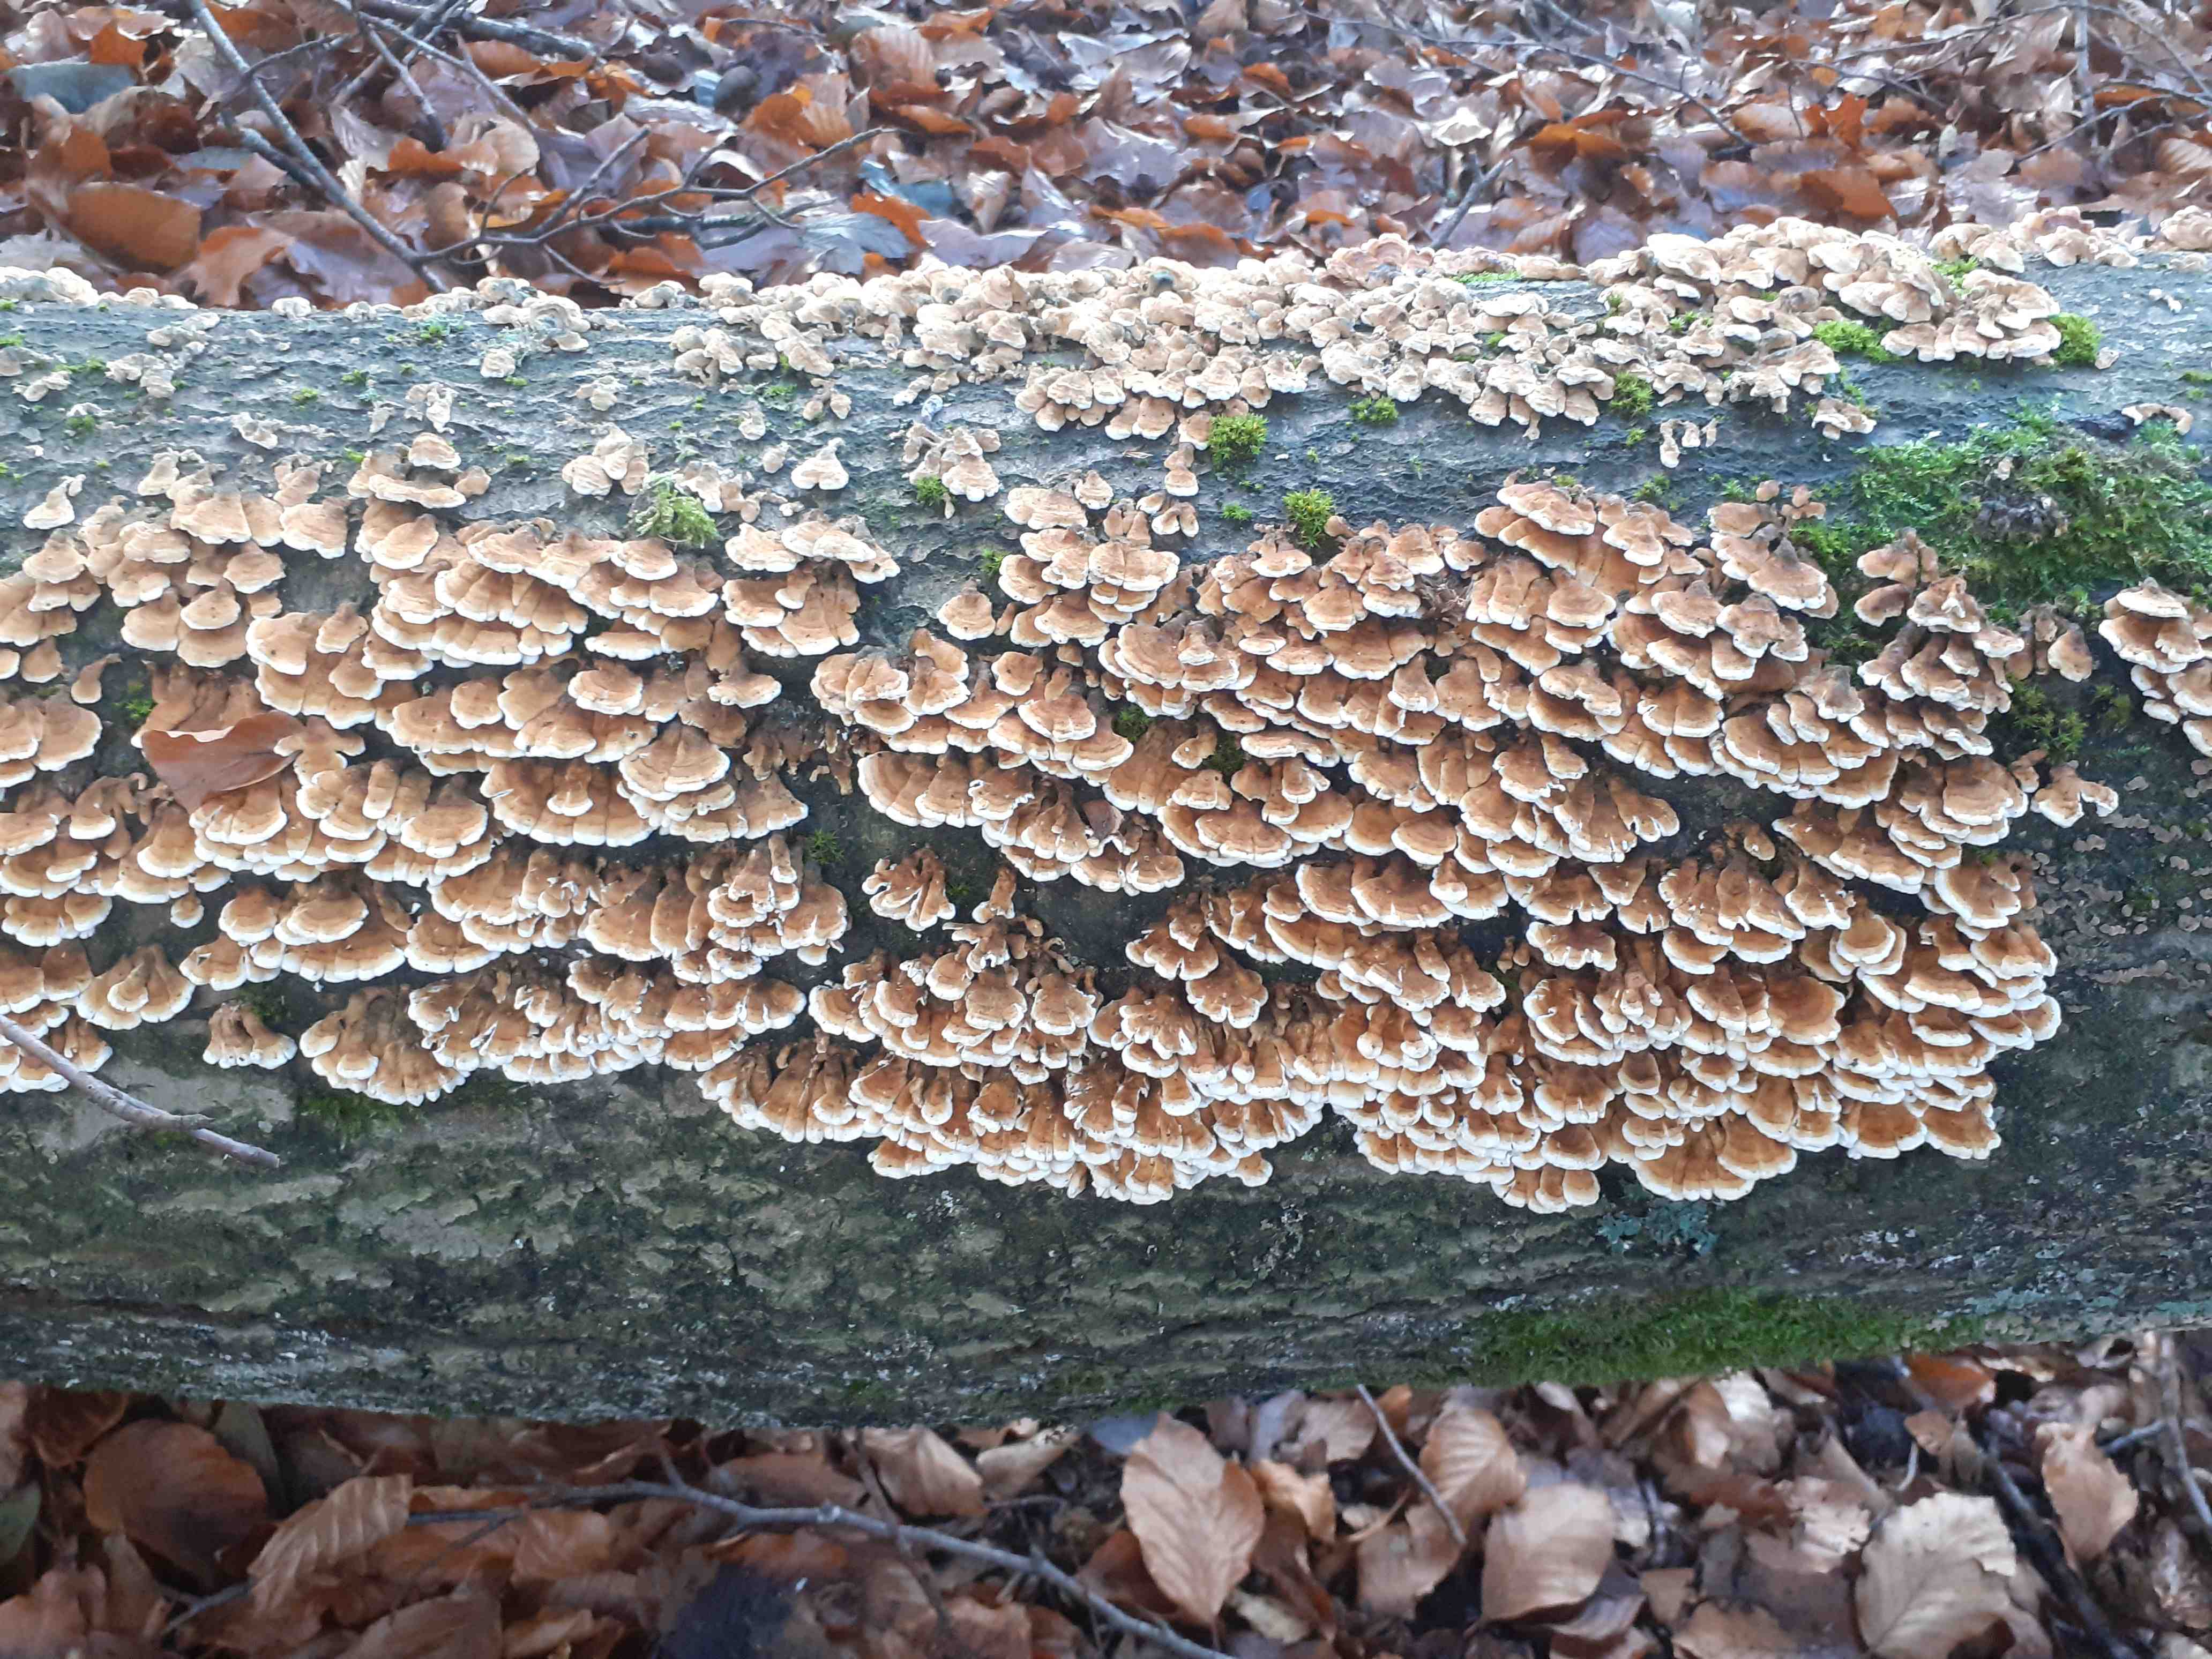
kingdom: Fungi
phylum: Basidiomycota
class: Agaricomycetes
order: Amylocorticiales
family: Amylocorticiaceae
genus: Plicaturopsis
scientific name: Plicaturopsis crispa
